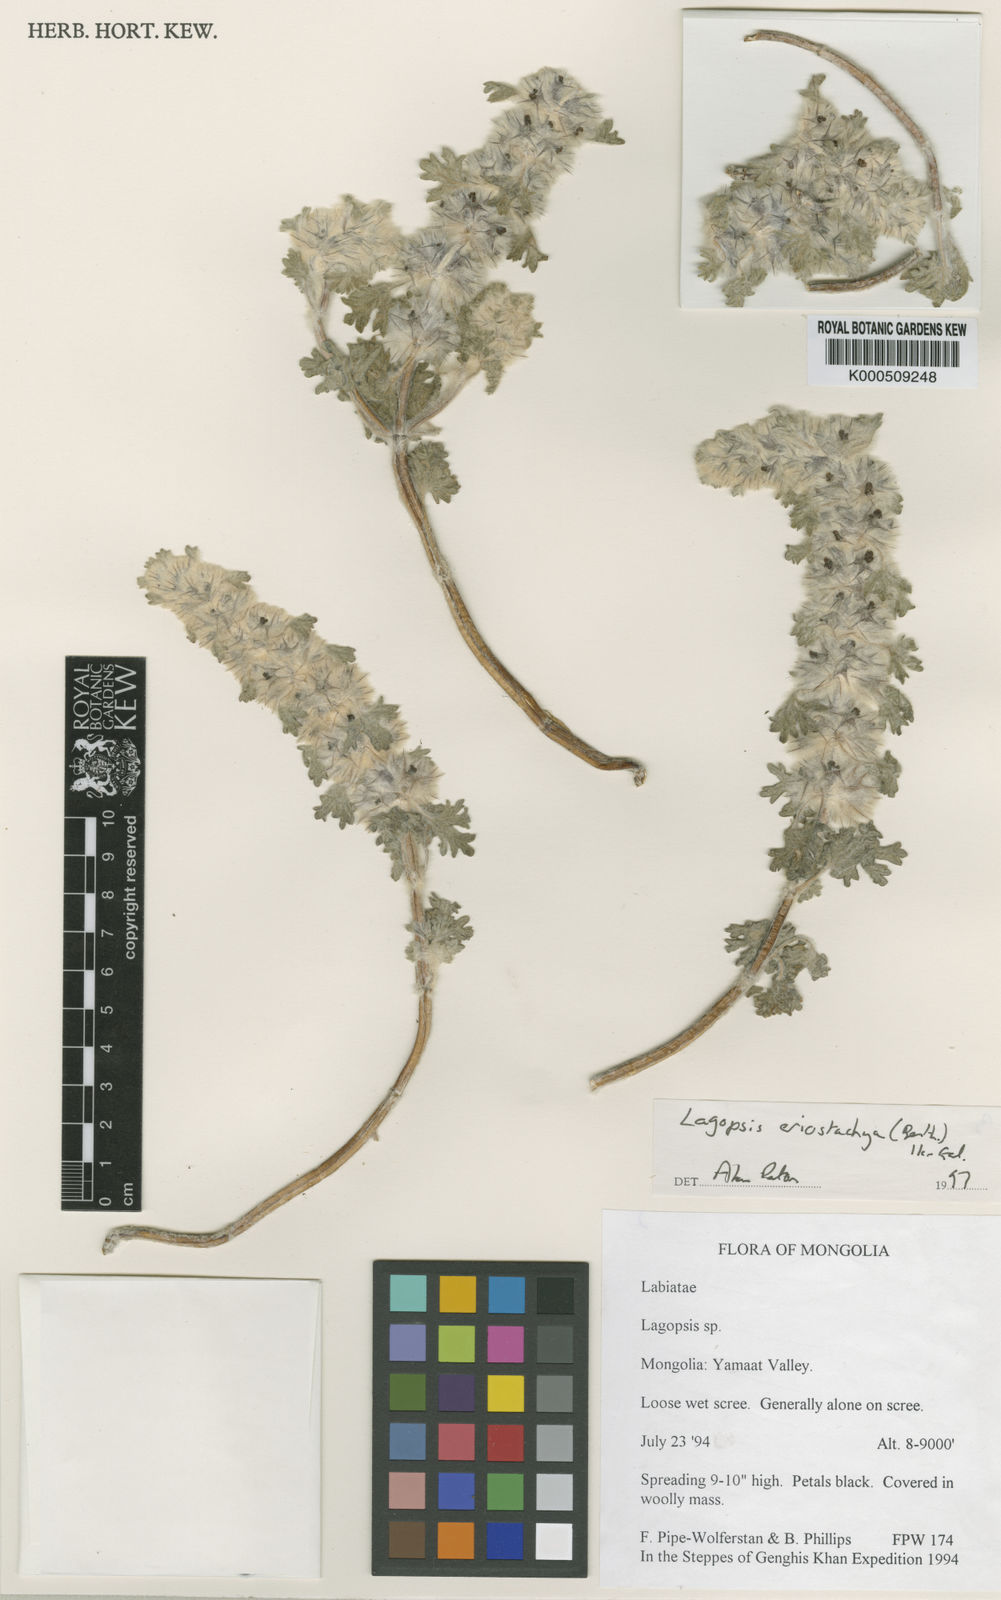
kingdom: Plantae
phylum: Tracheophyta
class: Magnoliopsida
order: Lamiales
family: Lamiaceae
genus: Lagopsis
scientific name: Lagopsis eriostachya
